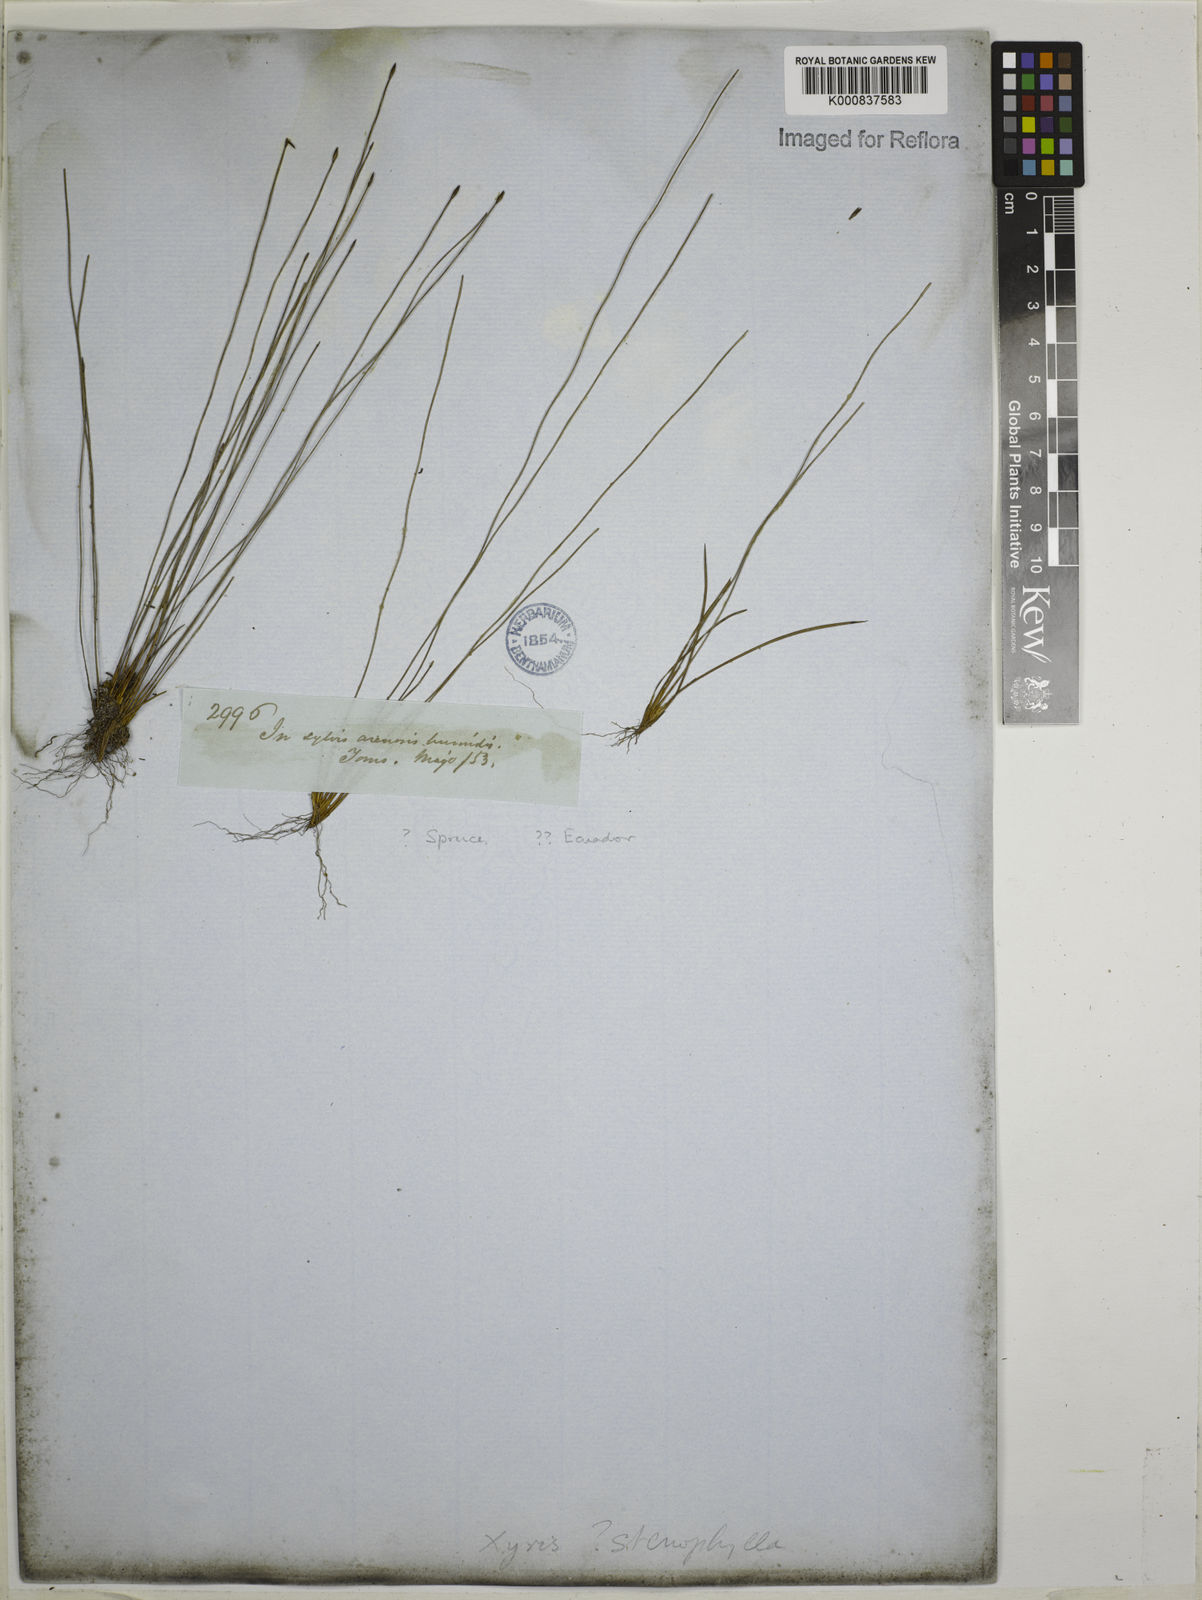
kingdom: Plantae
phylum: Tracheophyta
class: Liliopsida
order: Poales
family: Xyridaceae
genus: Xyris
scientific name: Xyris stenophylla
